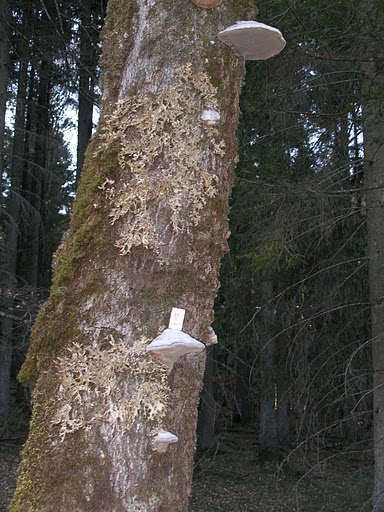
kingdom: Fungi
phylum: Ascomycota
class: Lecanoromycetes
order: Peltigerales
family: Lobariaceae
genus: Lobaria
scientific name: Lobaria pulmonaria
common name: almindelig lungelav
